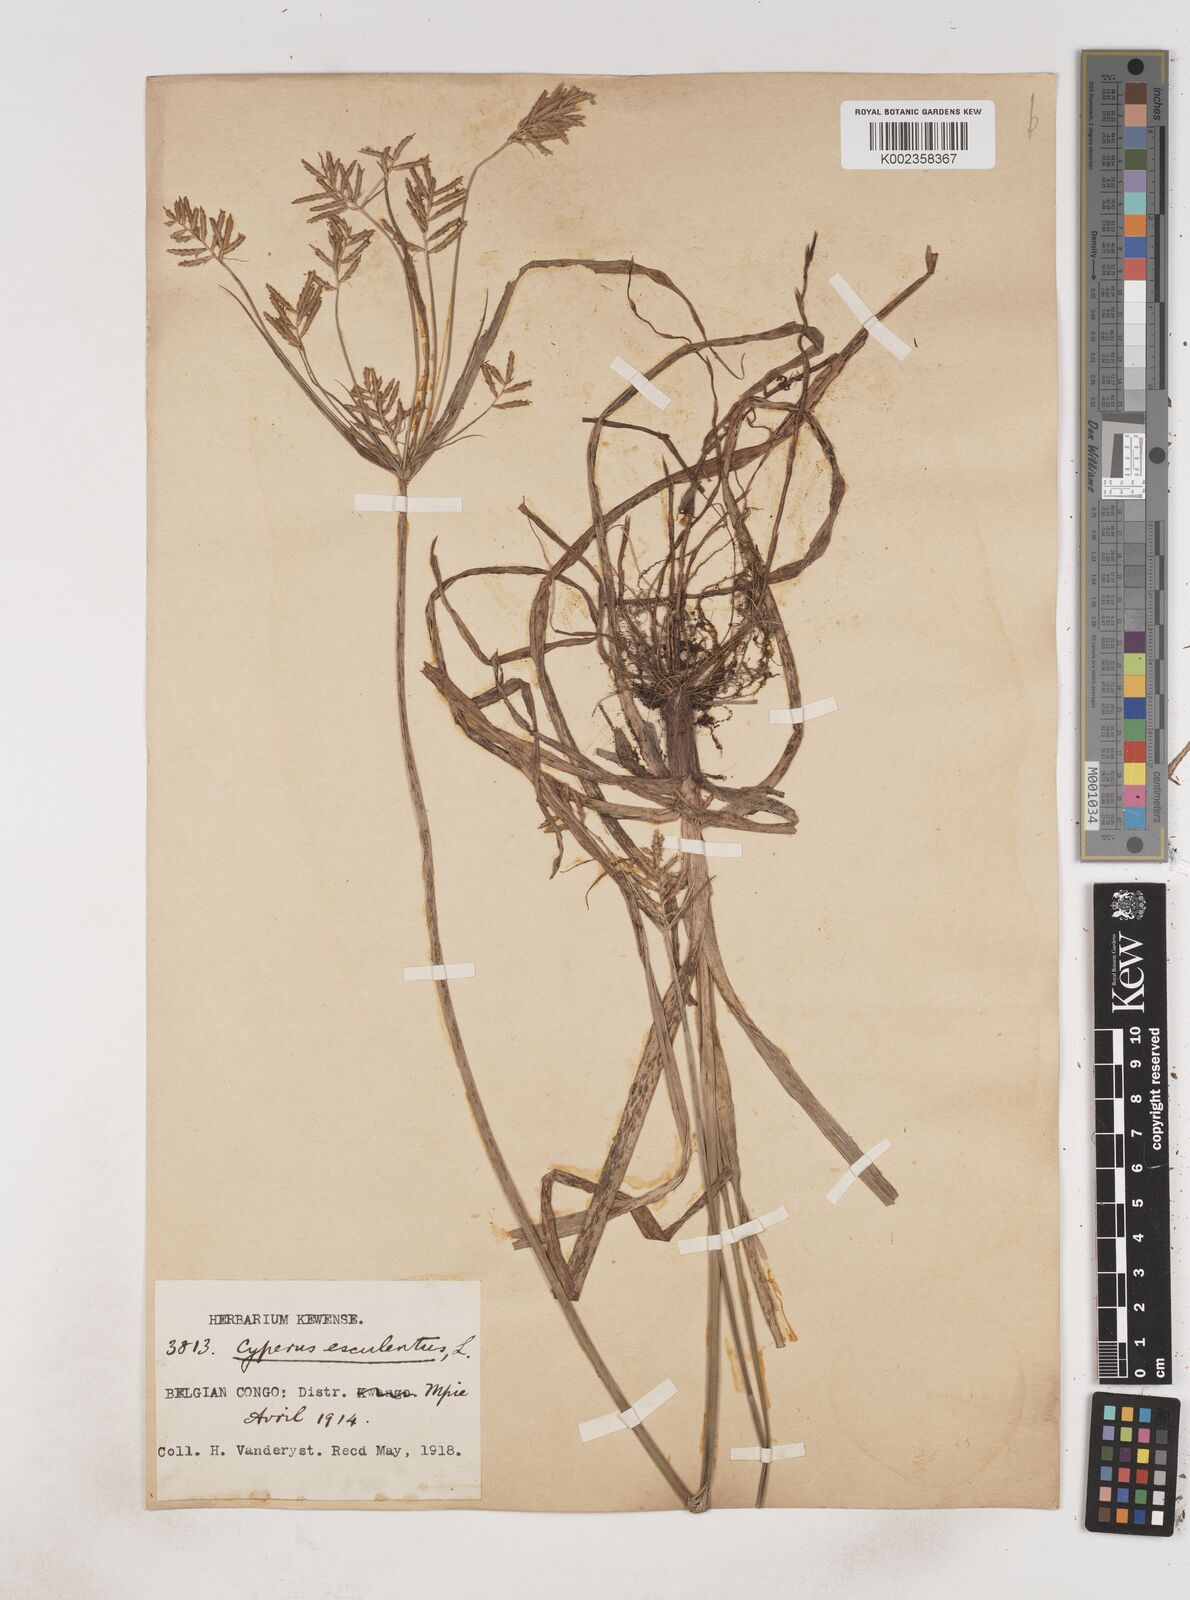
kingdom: Plantae
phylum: Tracheophyta
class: Liliopsida
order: Poales
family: Cyperaceae
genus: Cyperus
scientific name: Cyperus esculentus
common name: Yellow nutsedge
